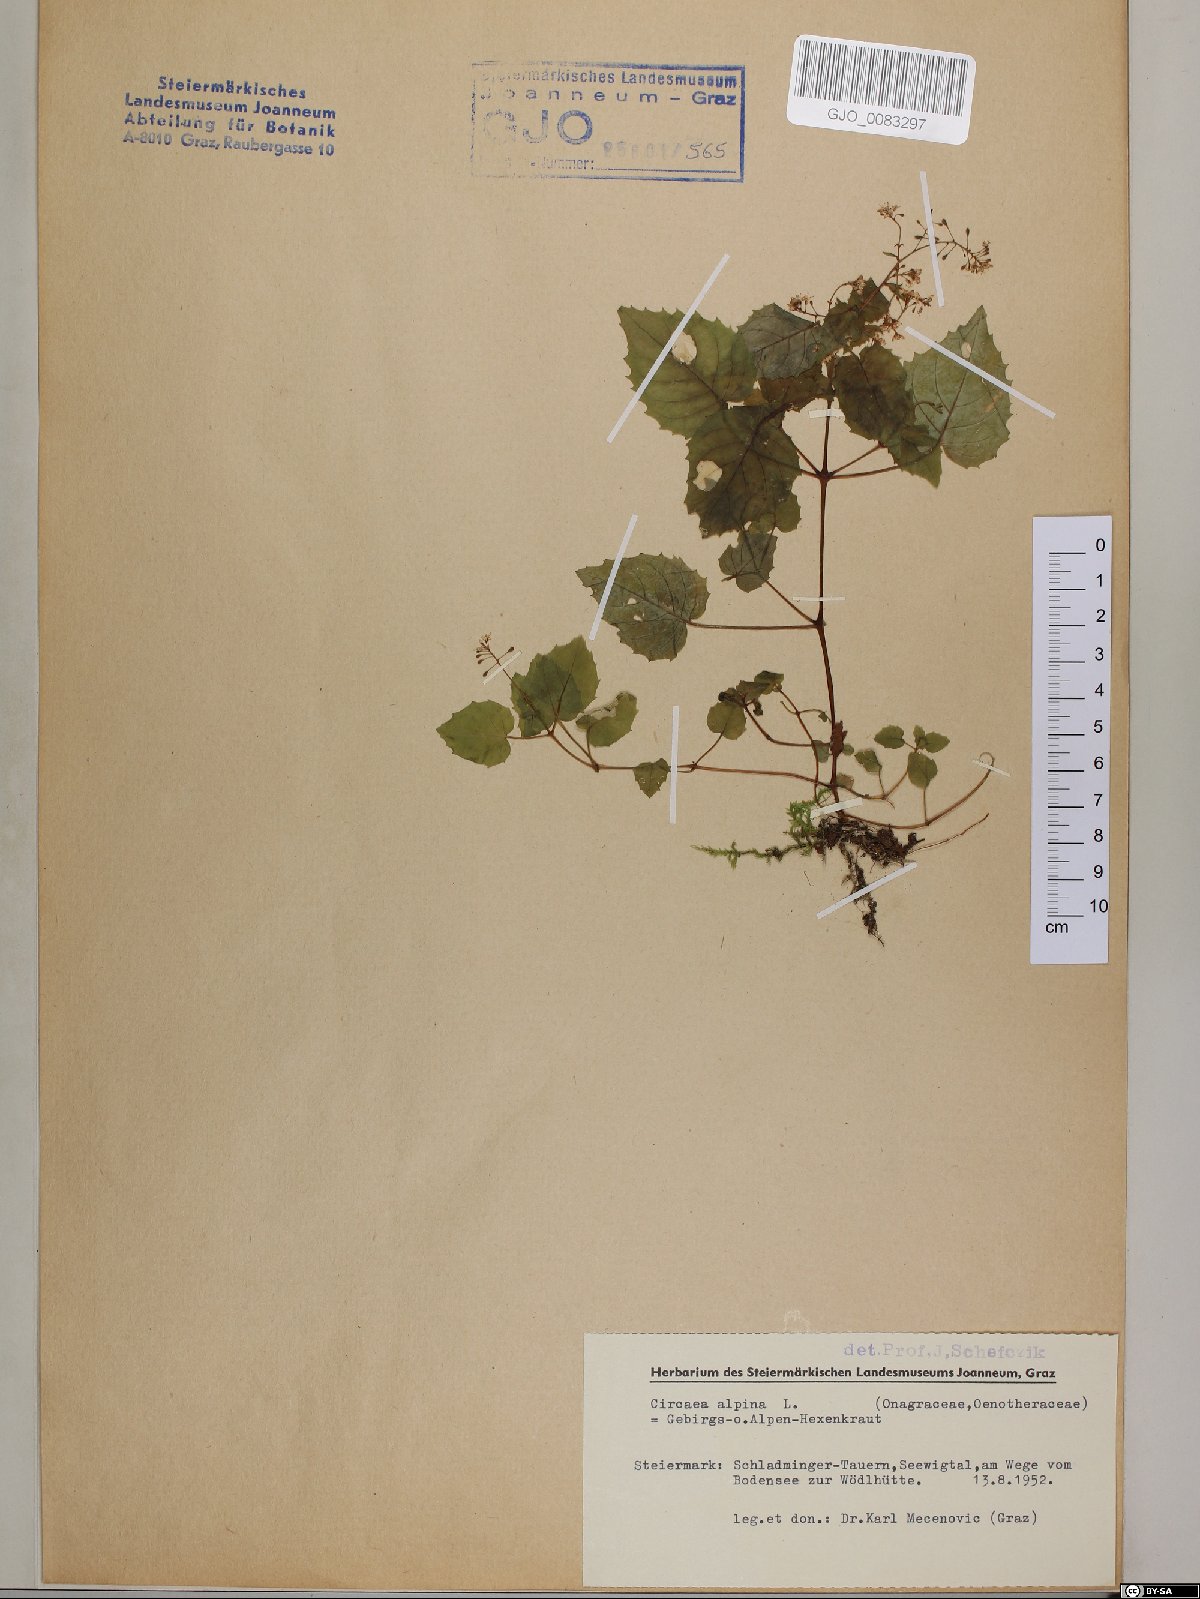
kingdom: Plantae
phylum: Tracheophyta
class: Magnoliopsida
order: Myrtales
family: Onagraceae
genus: Circaea
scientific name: Circaea alpina
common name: Alpine enchanter's-nightshade
